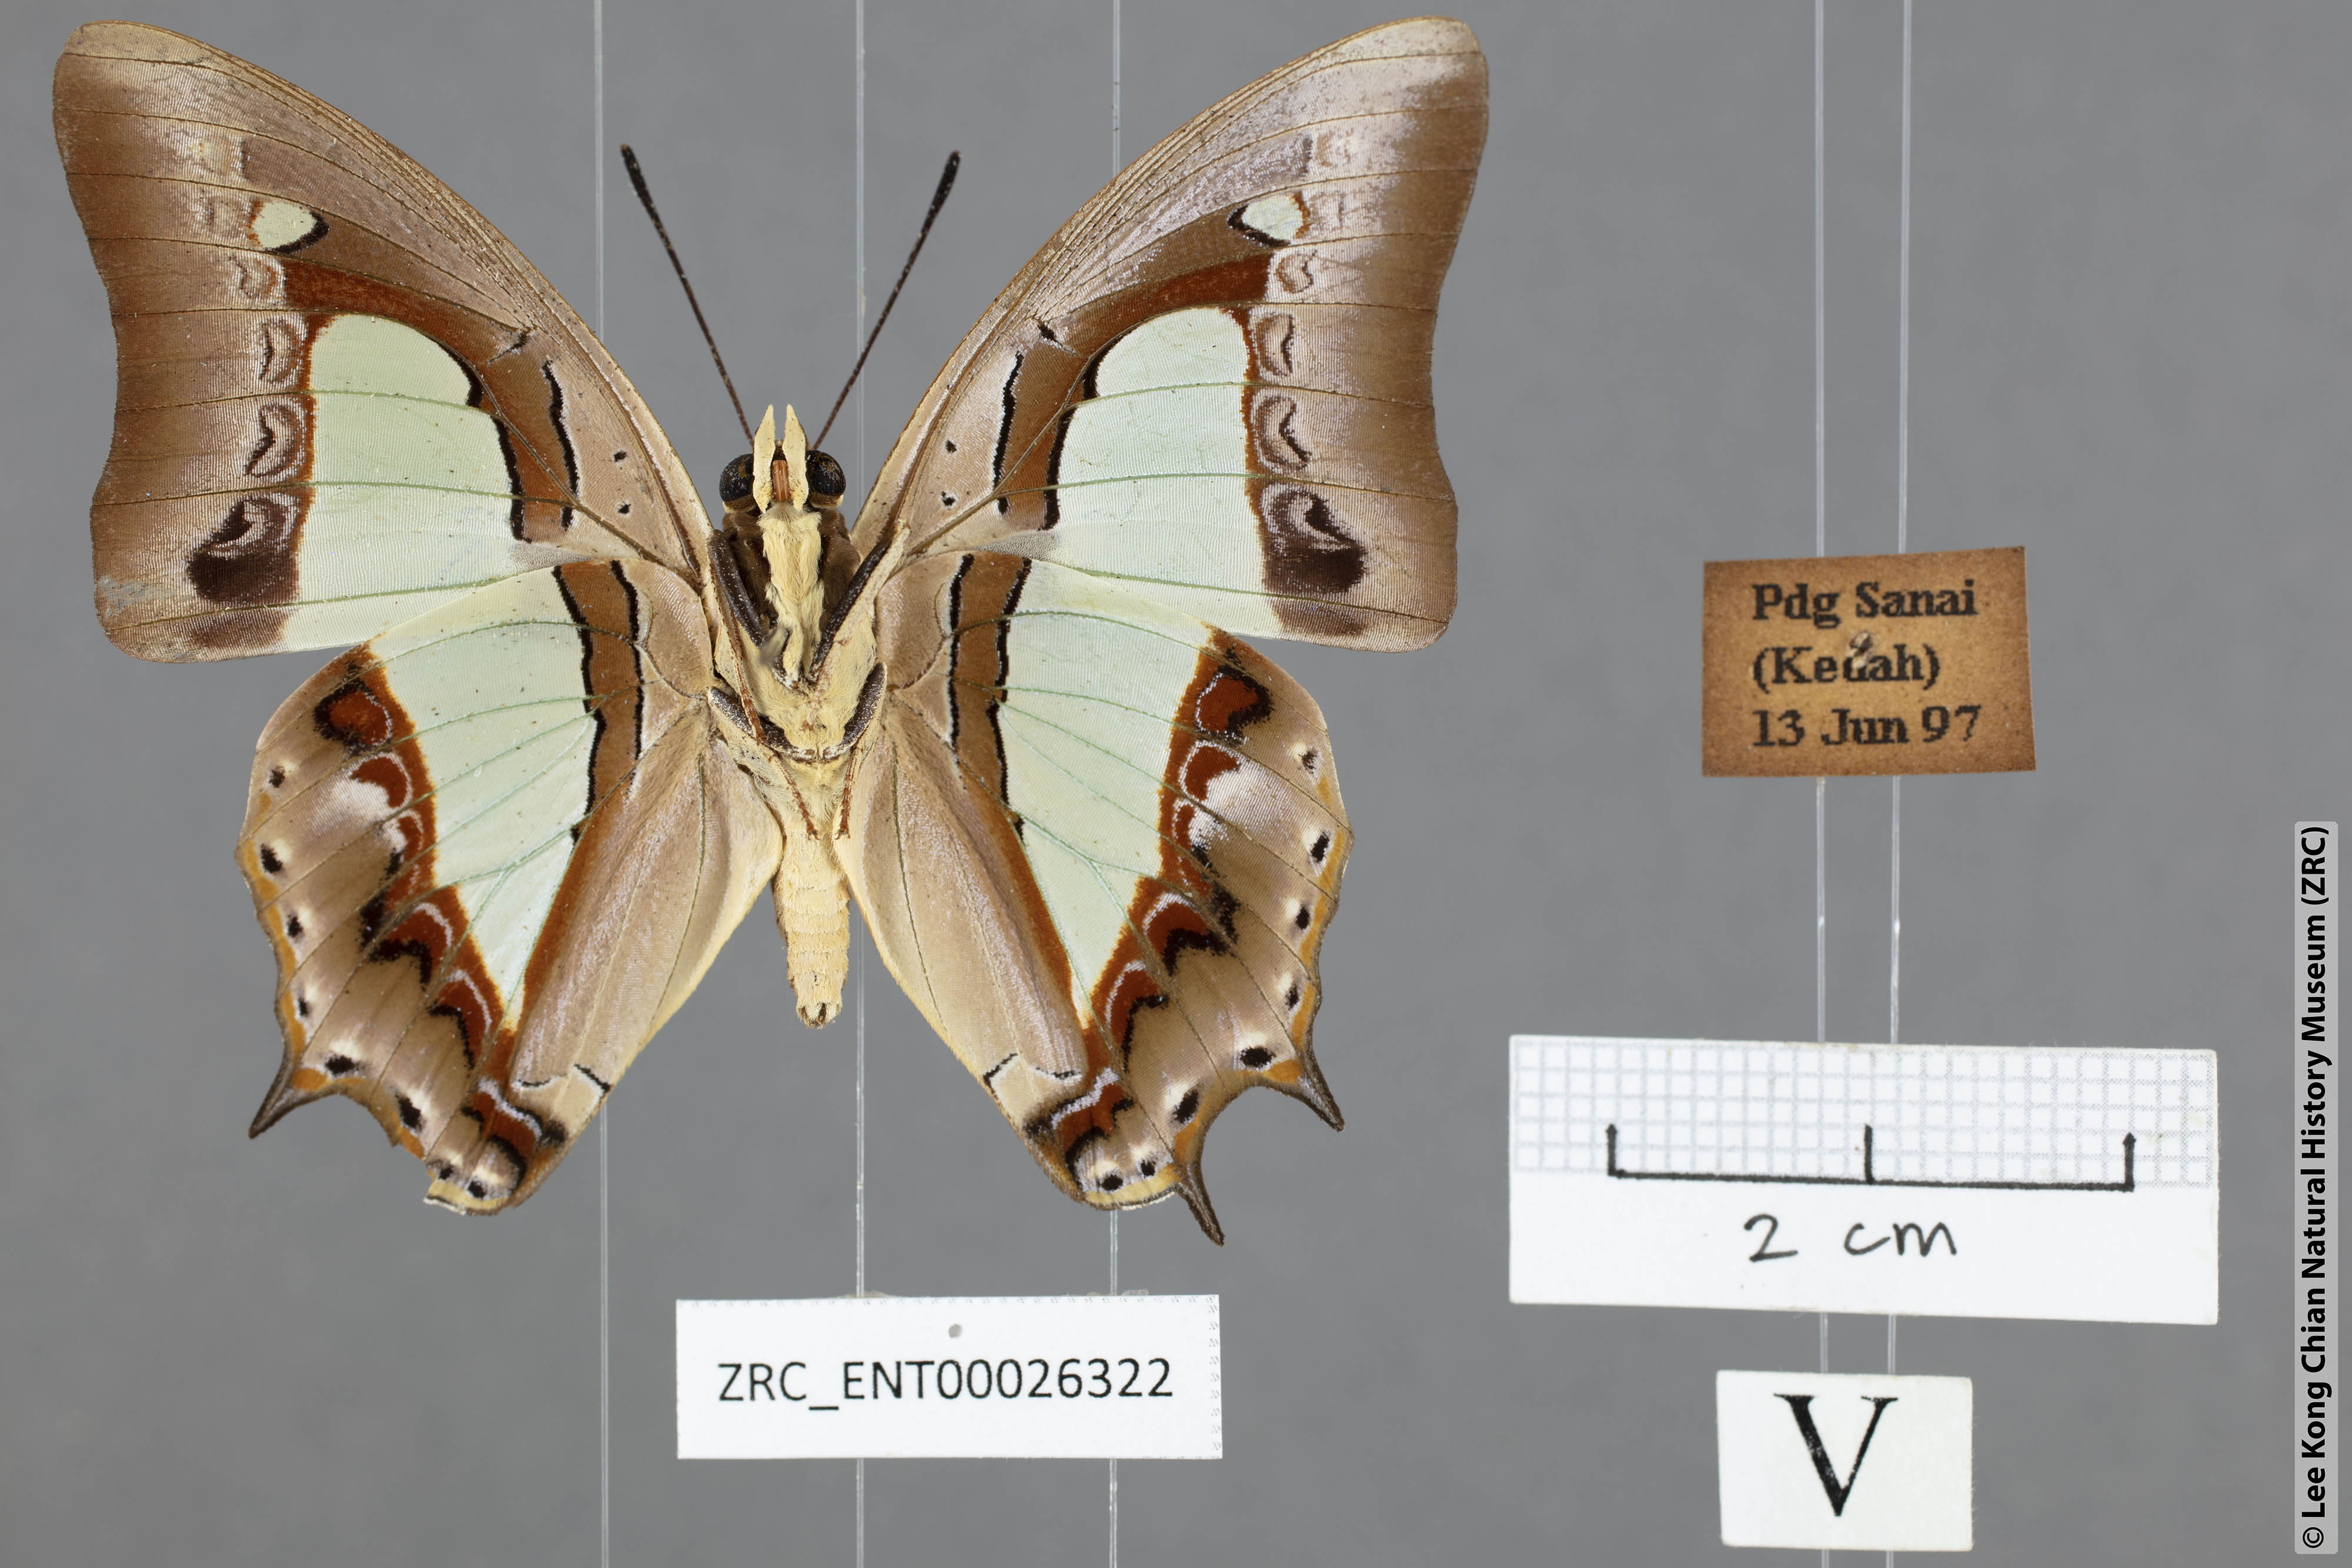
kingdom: Animalia
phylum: Arthropoda
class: Insecta
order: Lepidoptera
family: Nymphalidae
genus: Polyura
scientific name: Polyura athamas
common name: Common nawab
